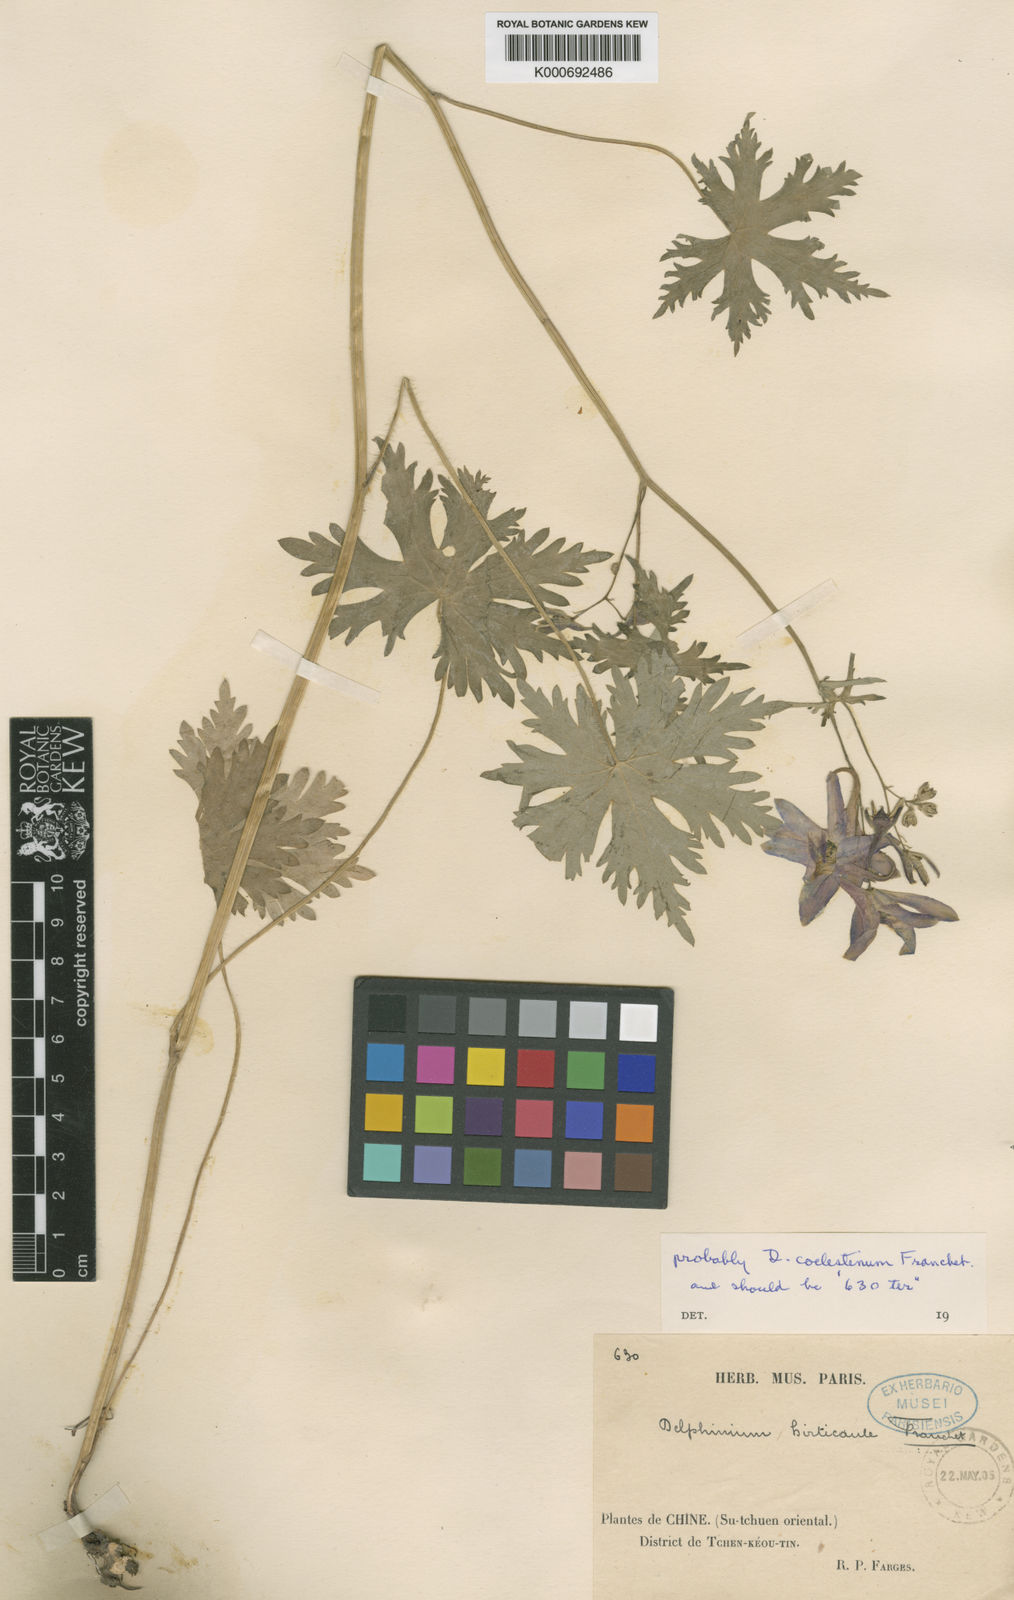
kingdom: Plantae
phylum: Tracheophyta
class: Magnoliopsida
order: Ranunculales
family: Ranunculaceae
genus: Delphinium
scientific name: Delphinium hirticaule
